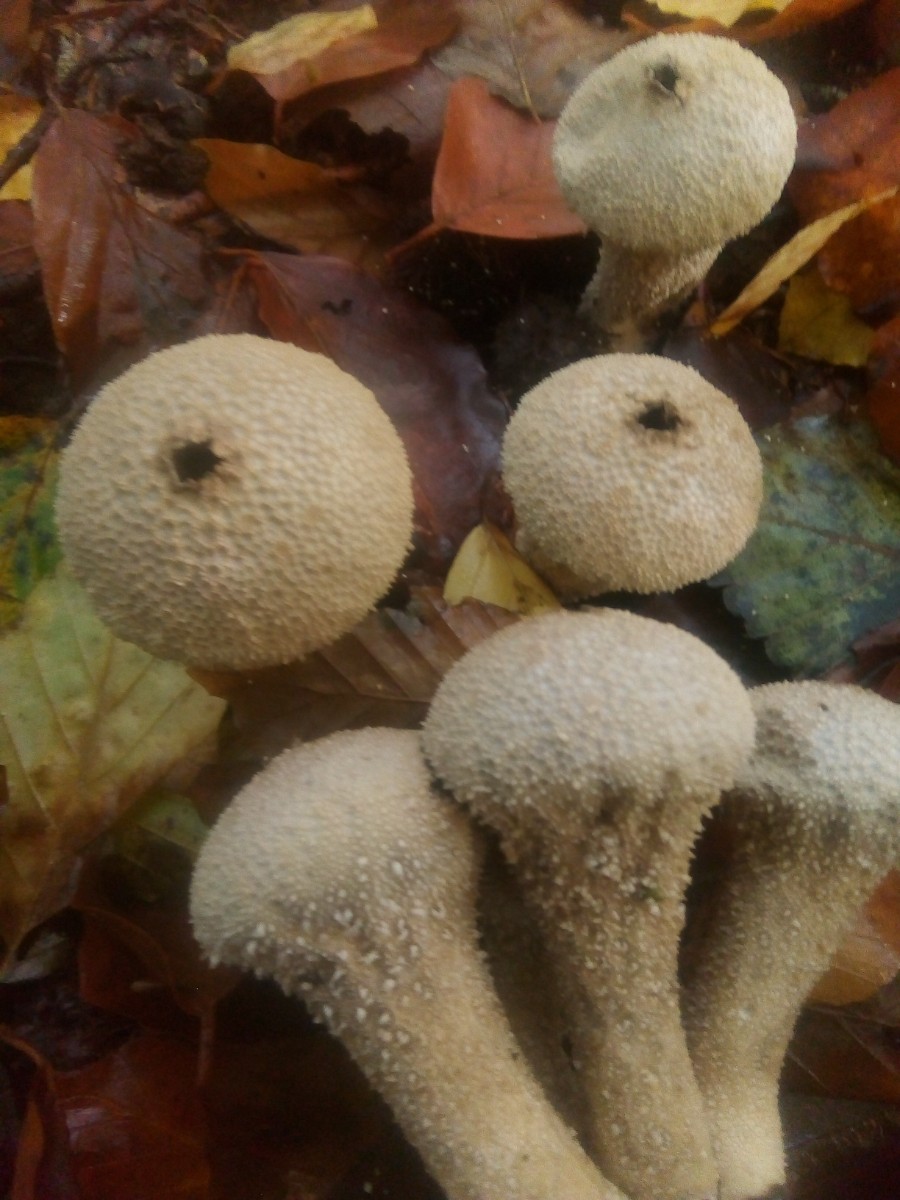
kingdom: Fungi
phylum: Basidiomycota
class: Agaricomycetes
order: Agaricales
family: Lycoperdaceae
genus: Lycoperdon
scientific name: Lycoperdon perlatum
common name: krystal-støvbold
